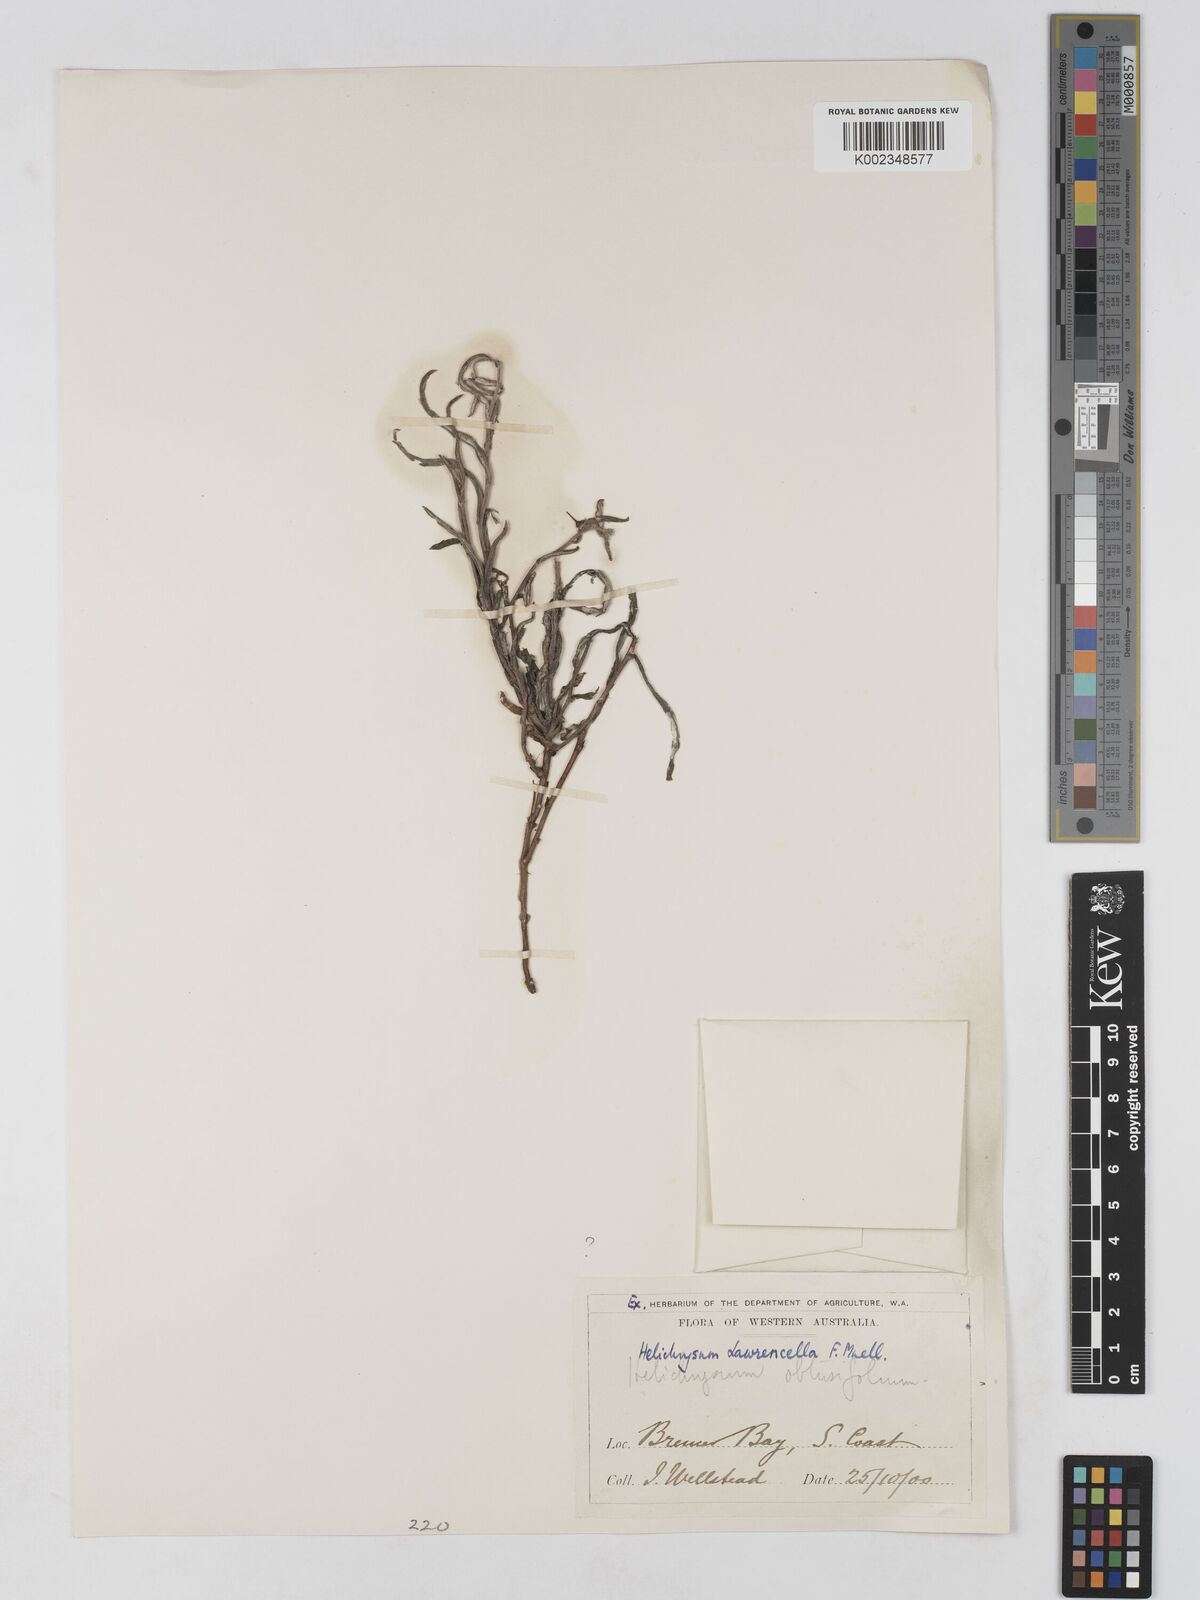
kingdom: Plantae
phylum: Tracheophyta
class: Magnoliopsida
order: Asterales
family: Asteraceae
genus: Lawrencella
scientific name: Lawrencella rosea
